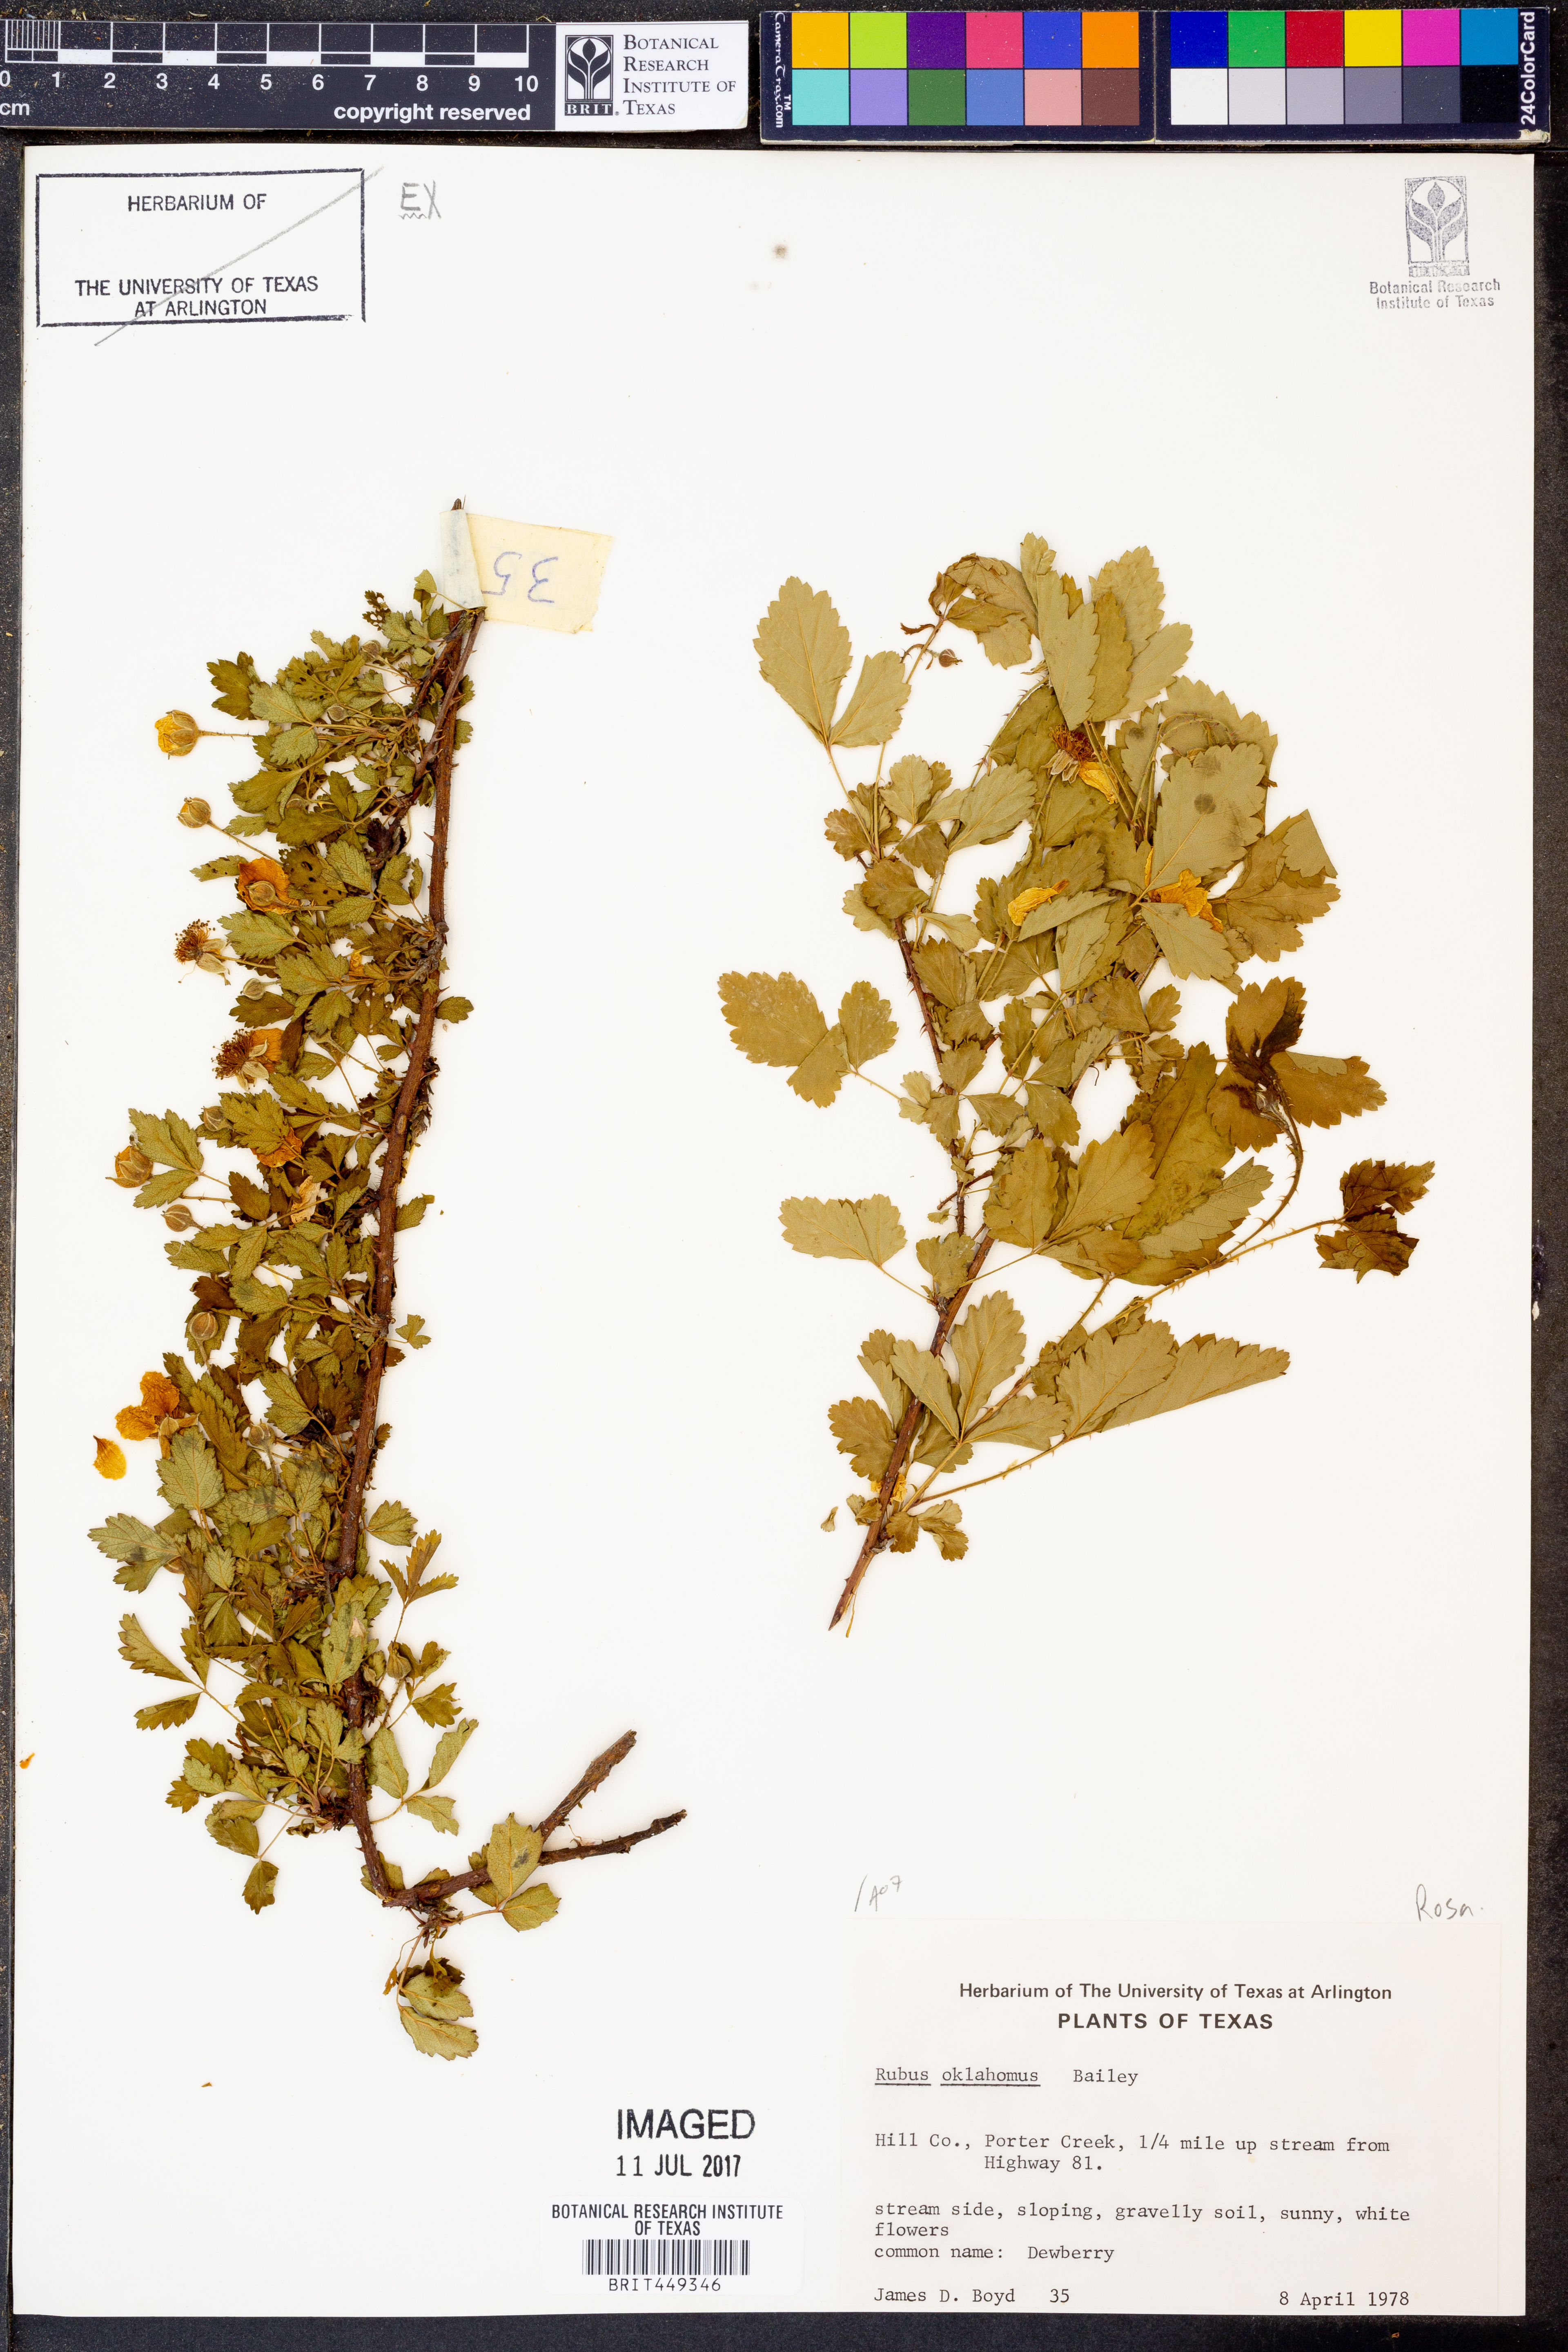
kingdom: Plantae
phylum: Tracheophyta
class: Magnoliopsida
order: Rosales
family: Rosaceae
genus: Rubus
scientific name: Rubus oklahomus
